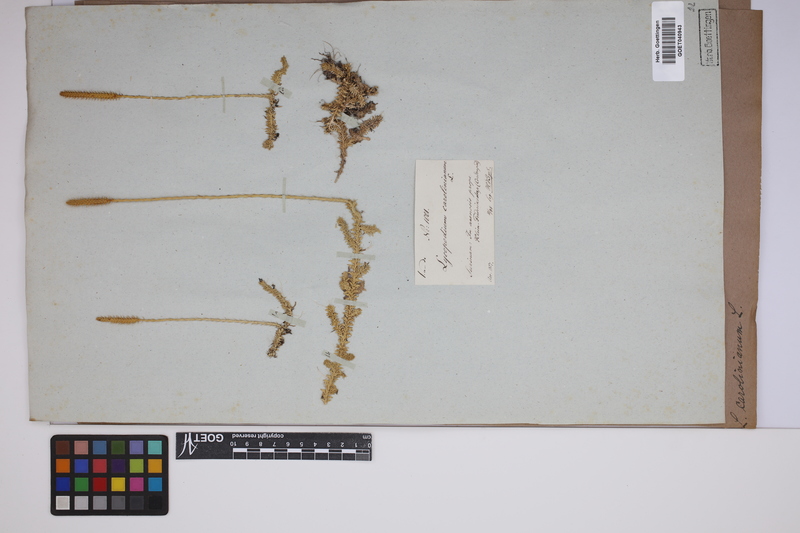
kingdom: Plantae
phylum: Tracheophyta
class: Lycopodiopsida
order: Lycopodiales
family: Lycopodiaceae
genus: Brownseya
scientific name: Brownseya serpentina
